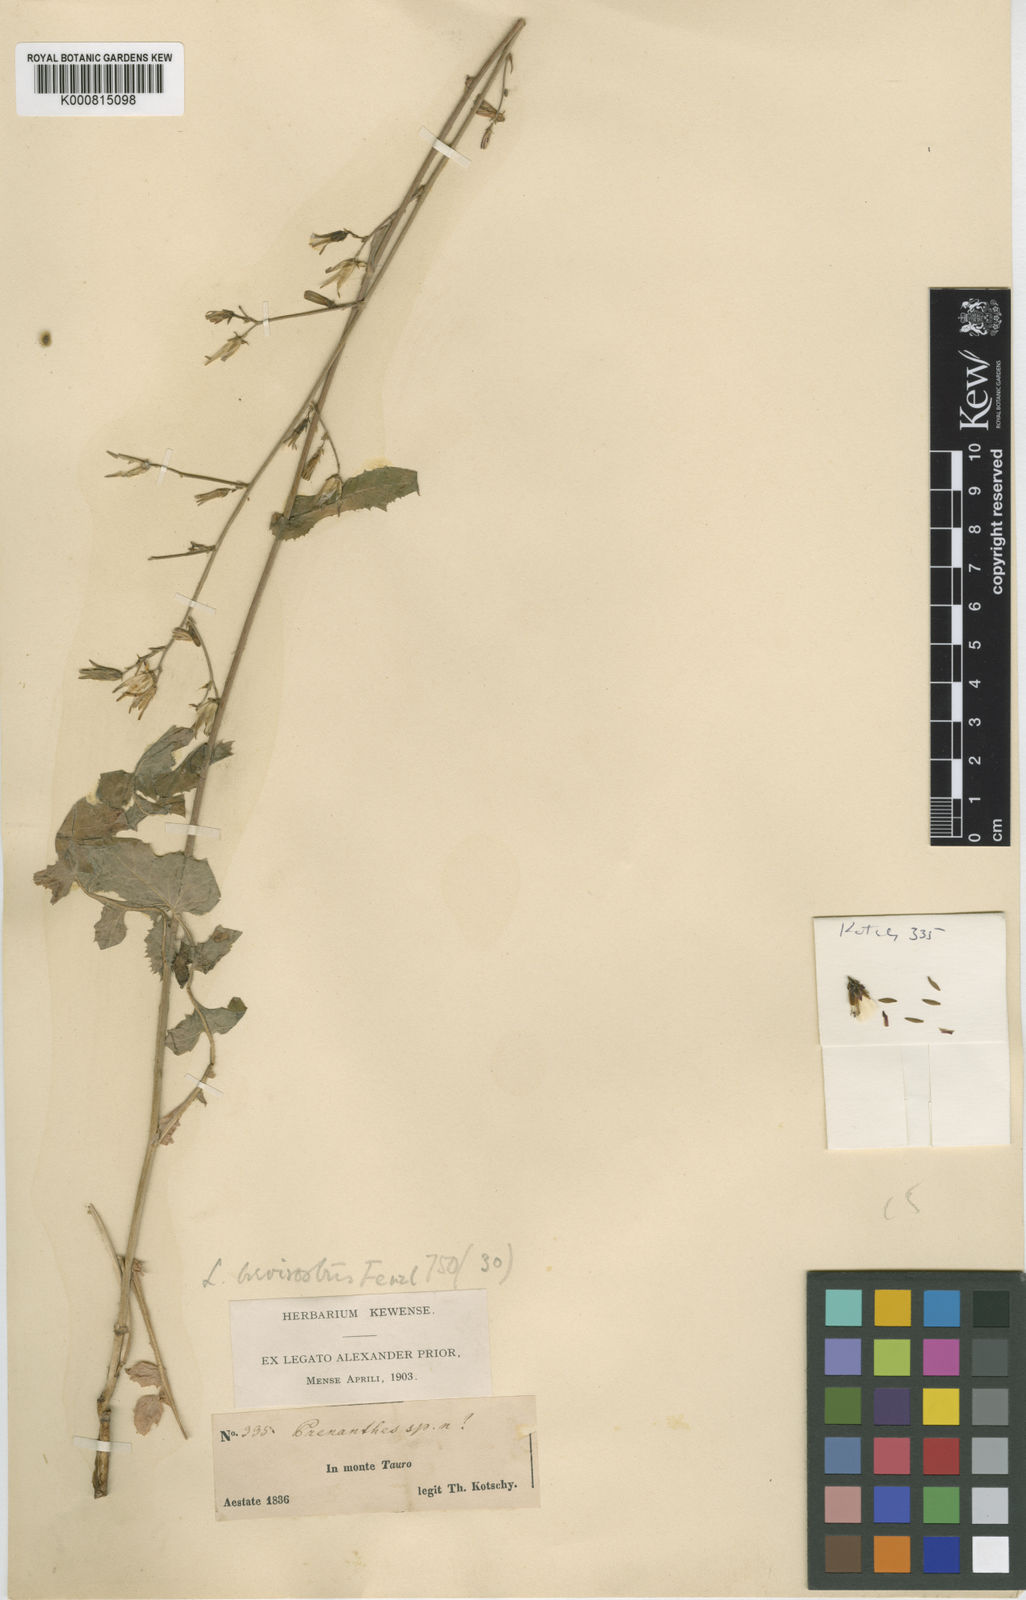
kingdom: Plantae
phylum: Tracheophyta
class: Magnoliopsida
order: Asterales
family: Asteraceae
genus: Lactuca
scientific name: Lactuca fenzlii
